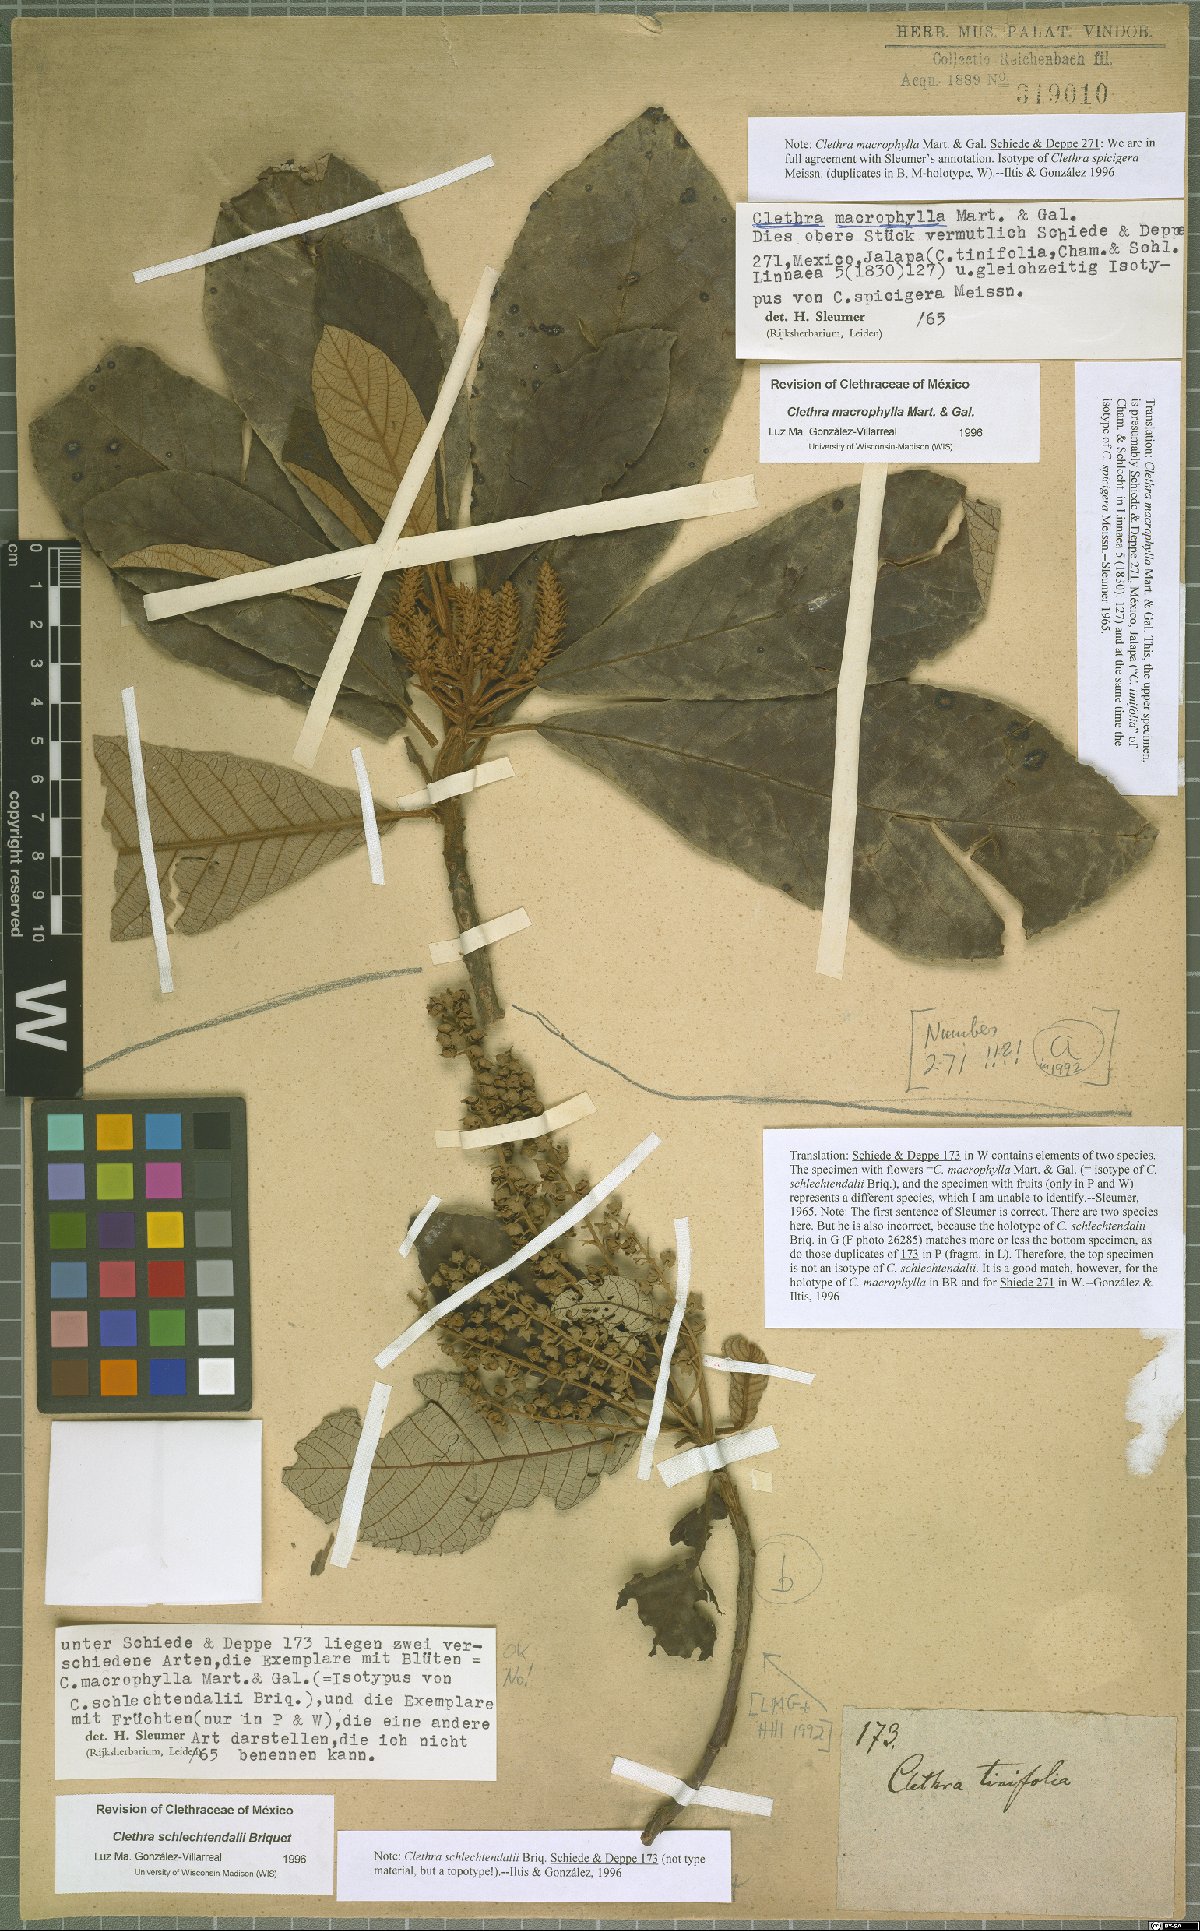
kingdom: Plantae
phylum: Tracheophyta
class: Magnoliopsida
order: Ericales
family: Clethraceae
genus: Clethra
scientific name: Clethra macrophylla
